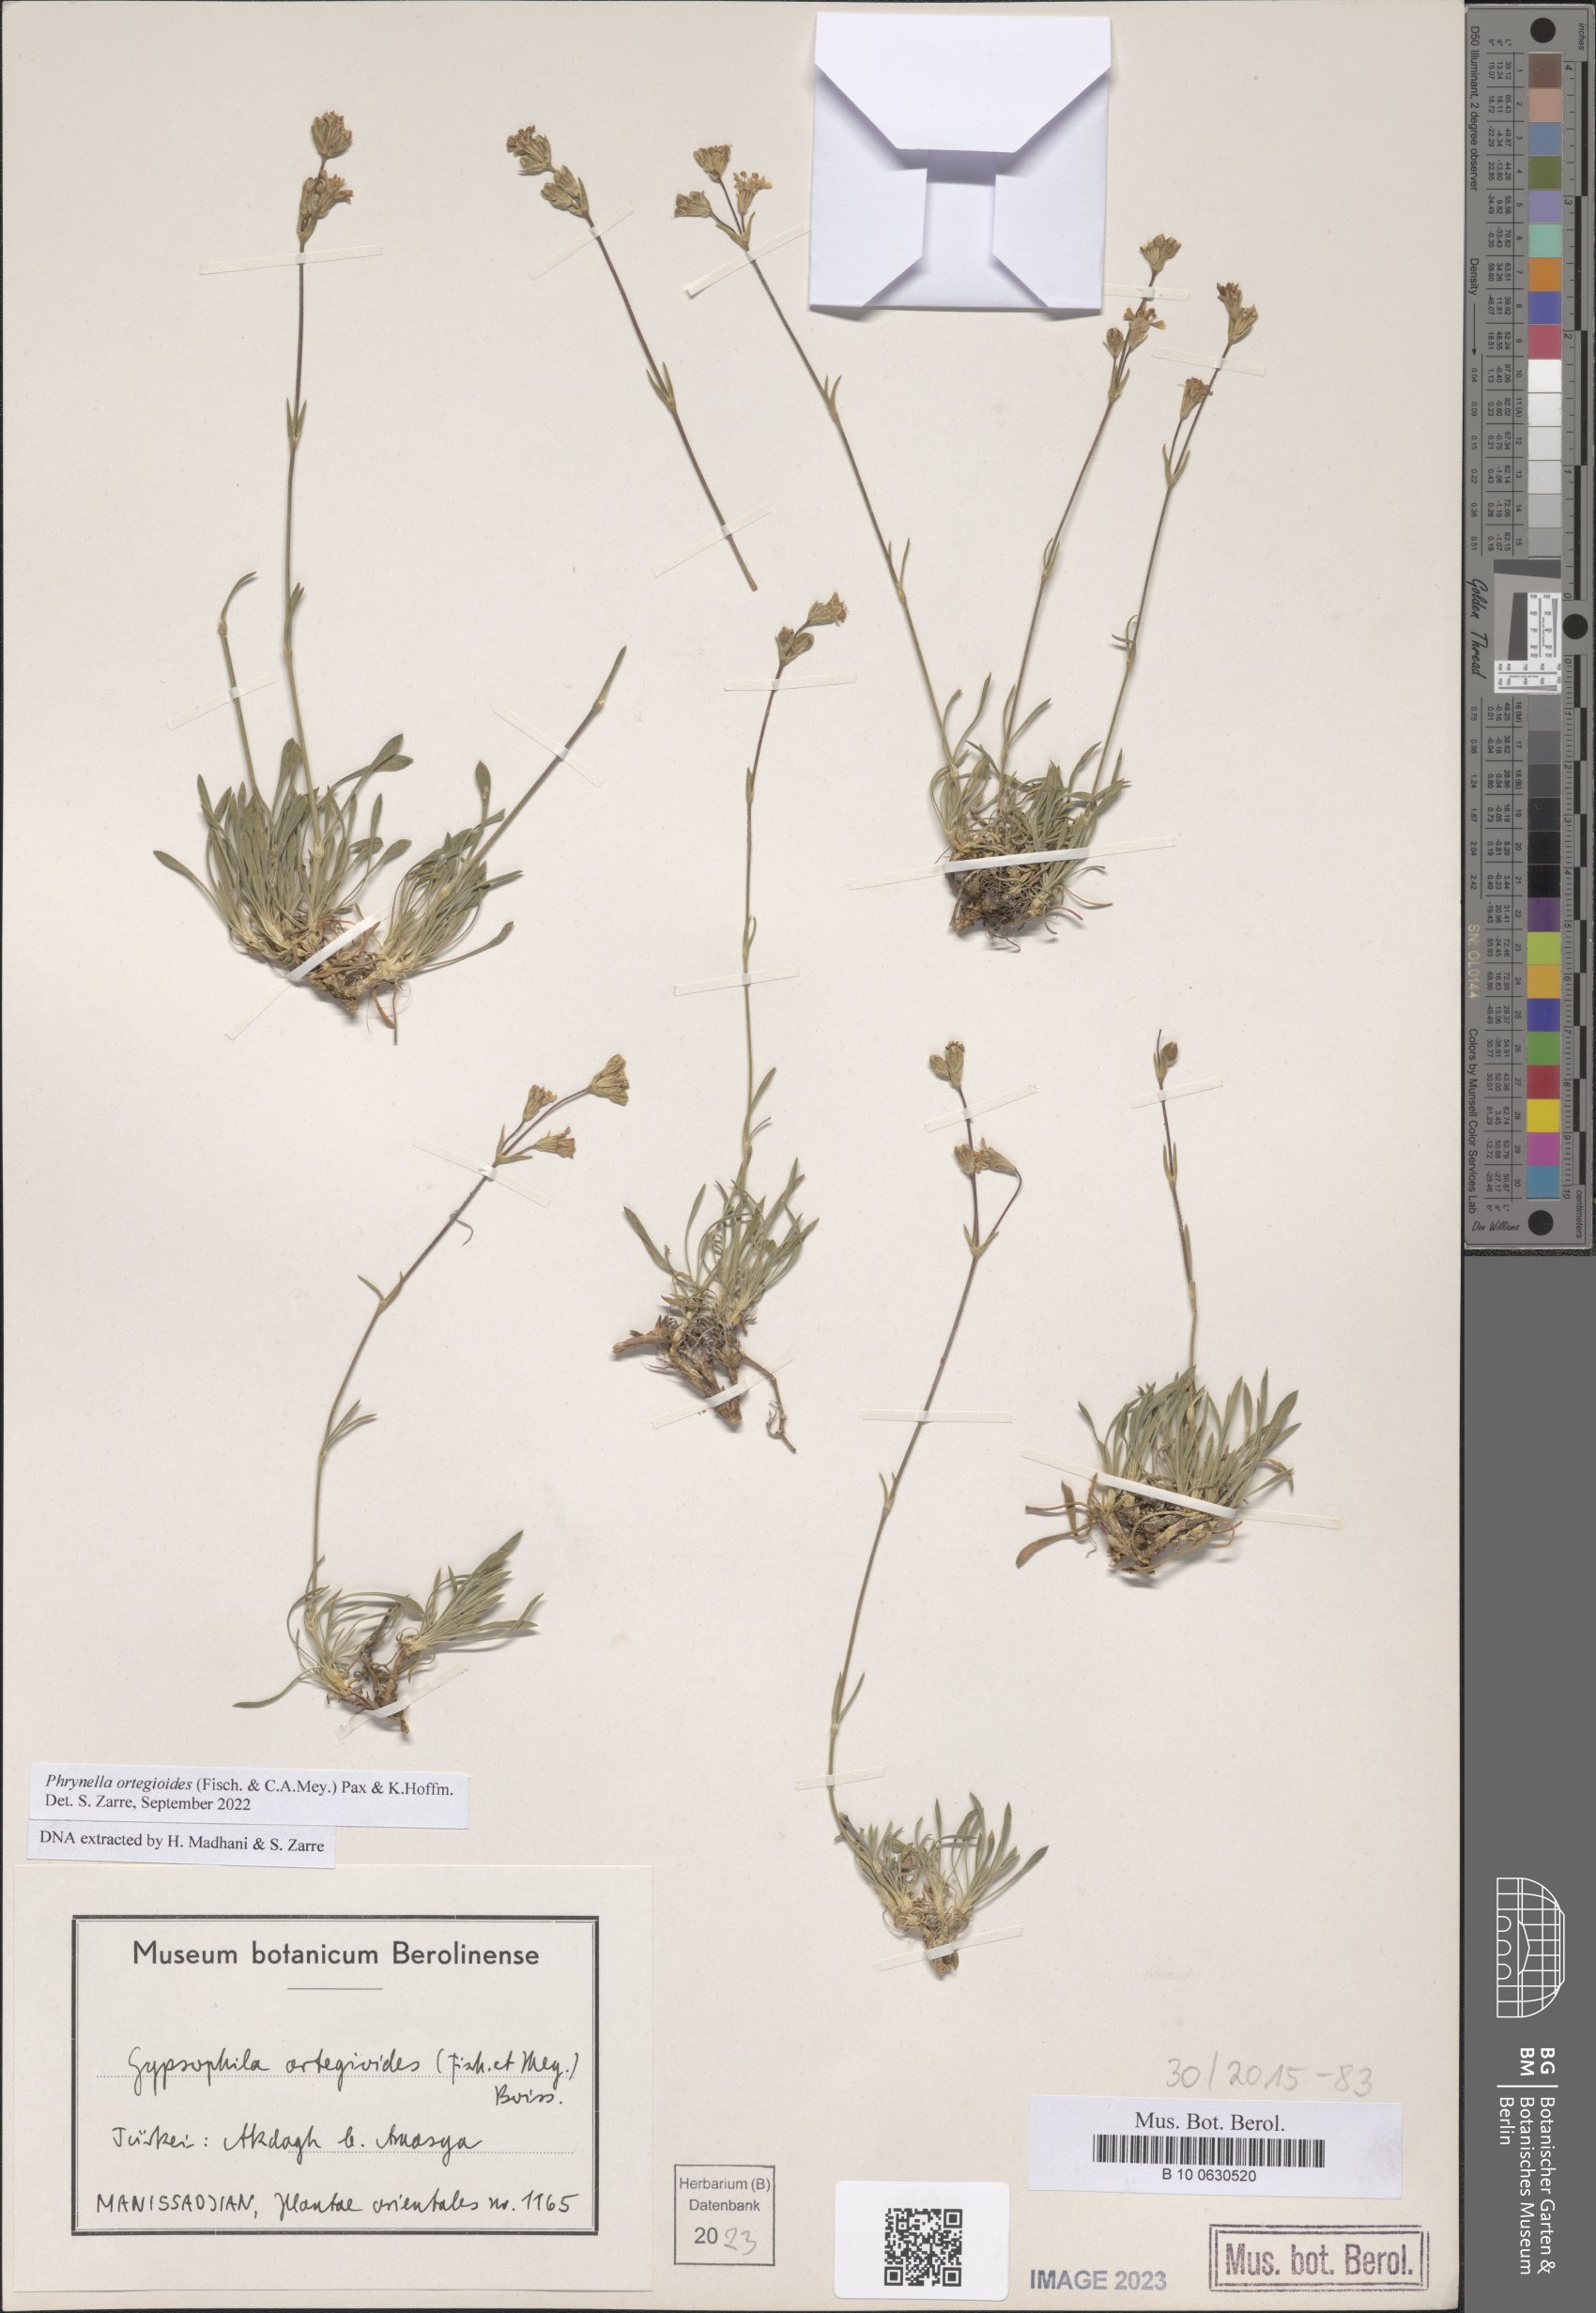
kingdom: Plantae
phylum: Tracheophyta
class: Magnoliopsida
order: Caryophyllales
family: Caryophyllaceae
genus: Bolanthus
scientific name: Bolanthus ortegioides
